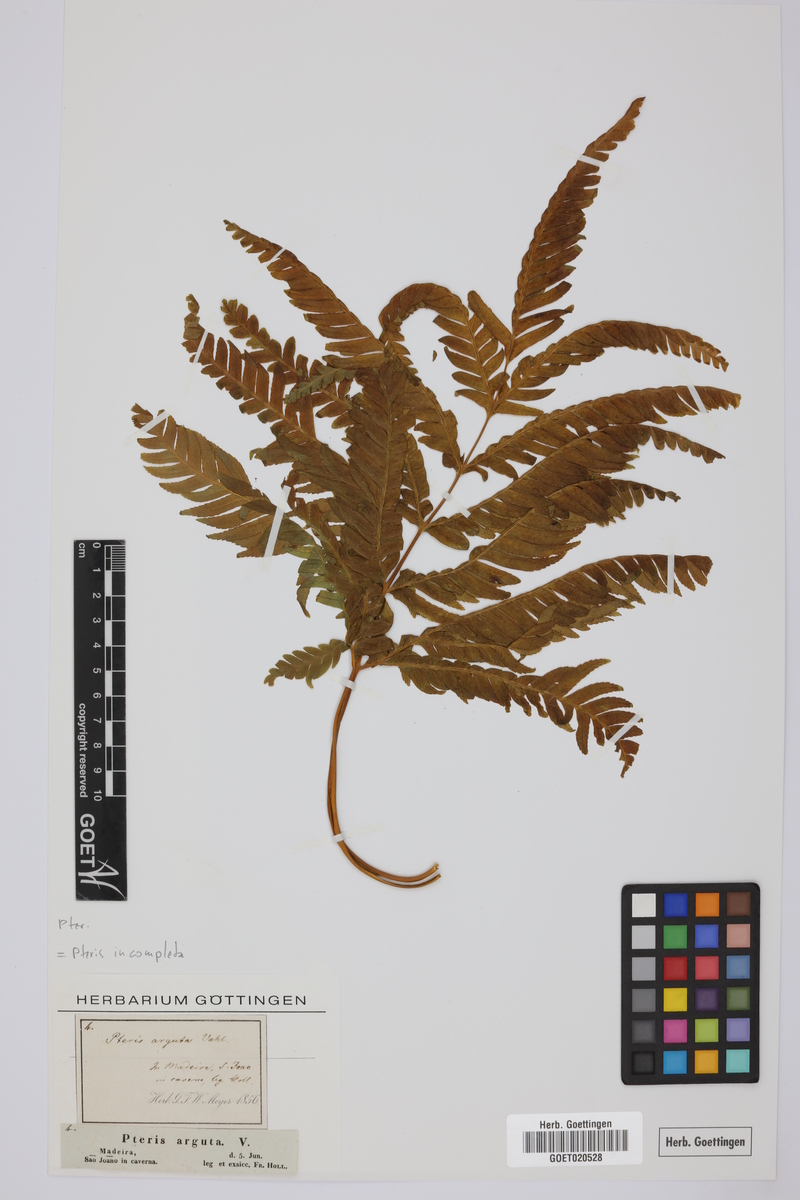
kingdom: Plantae
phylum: Tracheophyta
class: Polypodiopsida
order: Polypodiales
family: Pteridaceae
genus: Pteris
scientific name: Pteris incompleta
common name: Laurisilva brake
